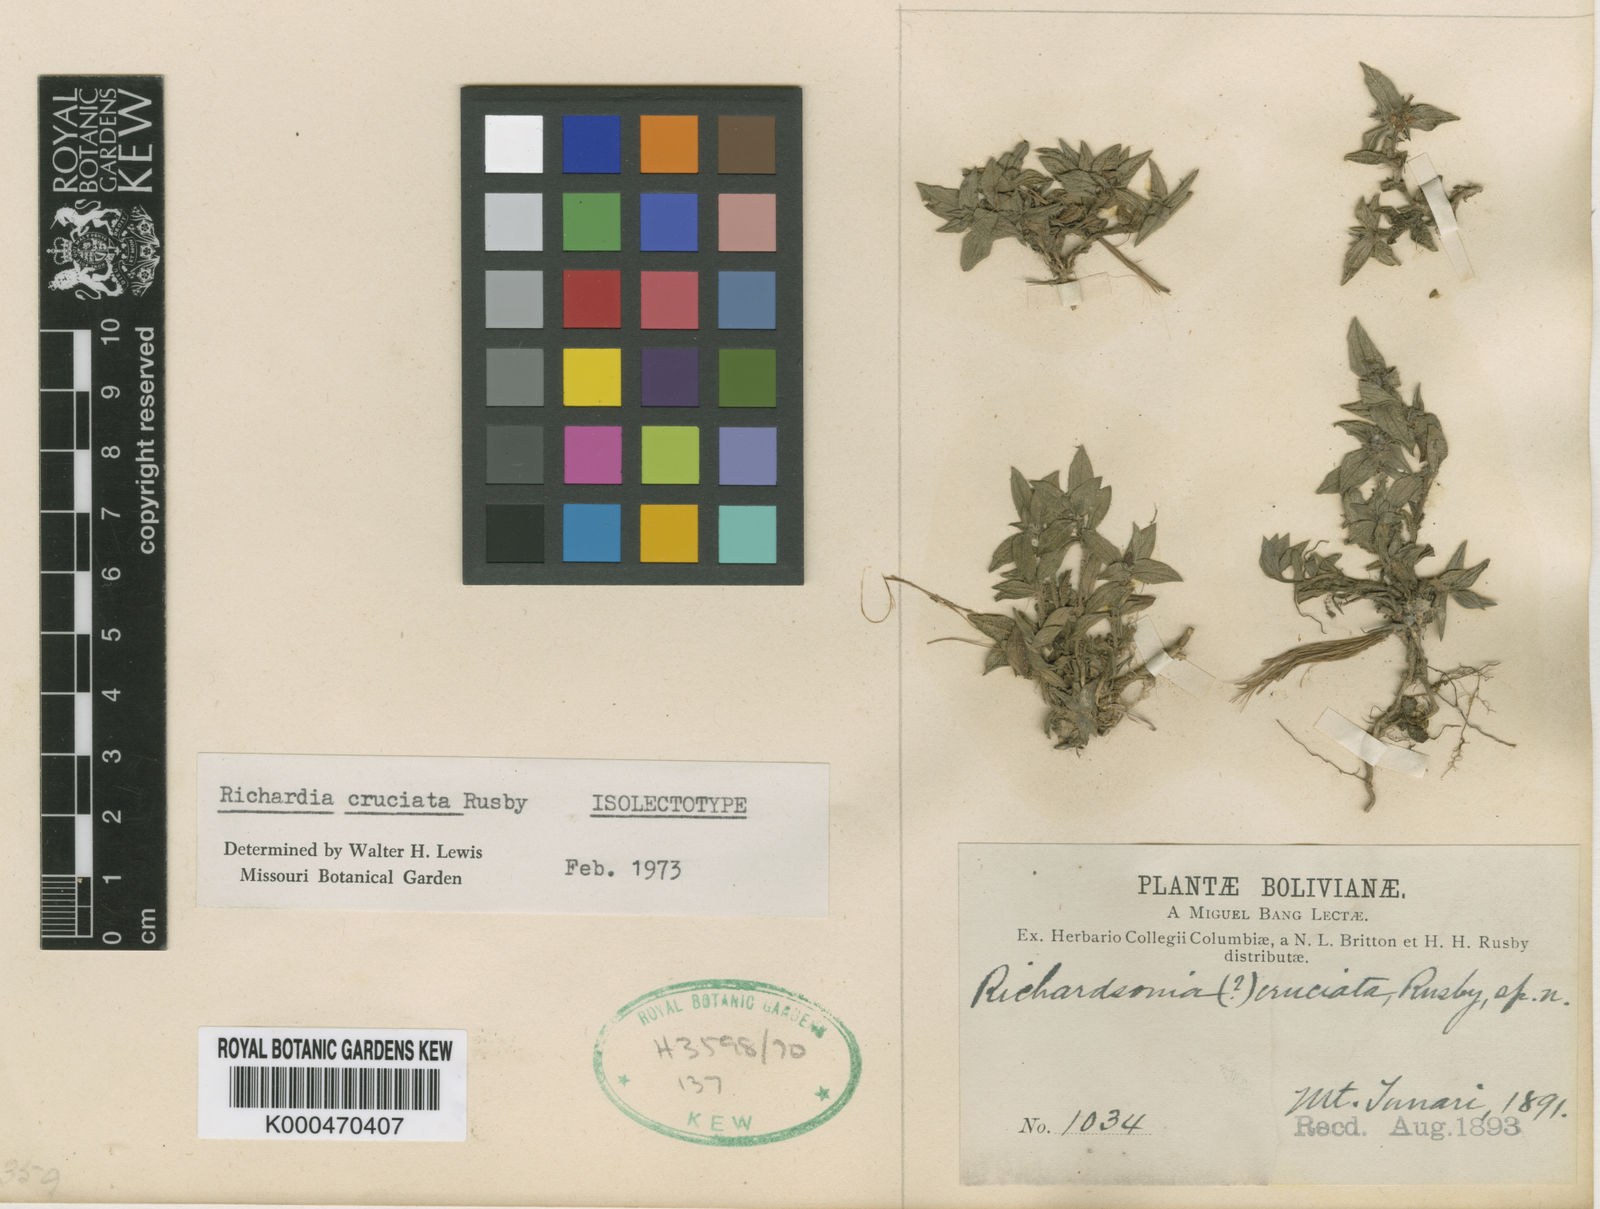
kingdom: Plantae
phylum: Tracheophyta
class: Magnoliopsida
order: Gentianales
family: Rubiaceae
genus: Richardia
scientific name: Richardia cruciata
